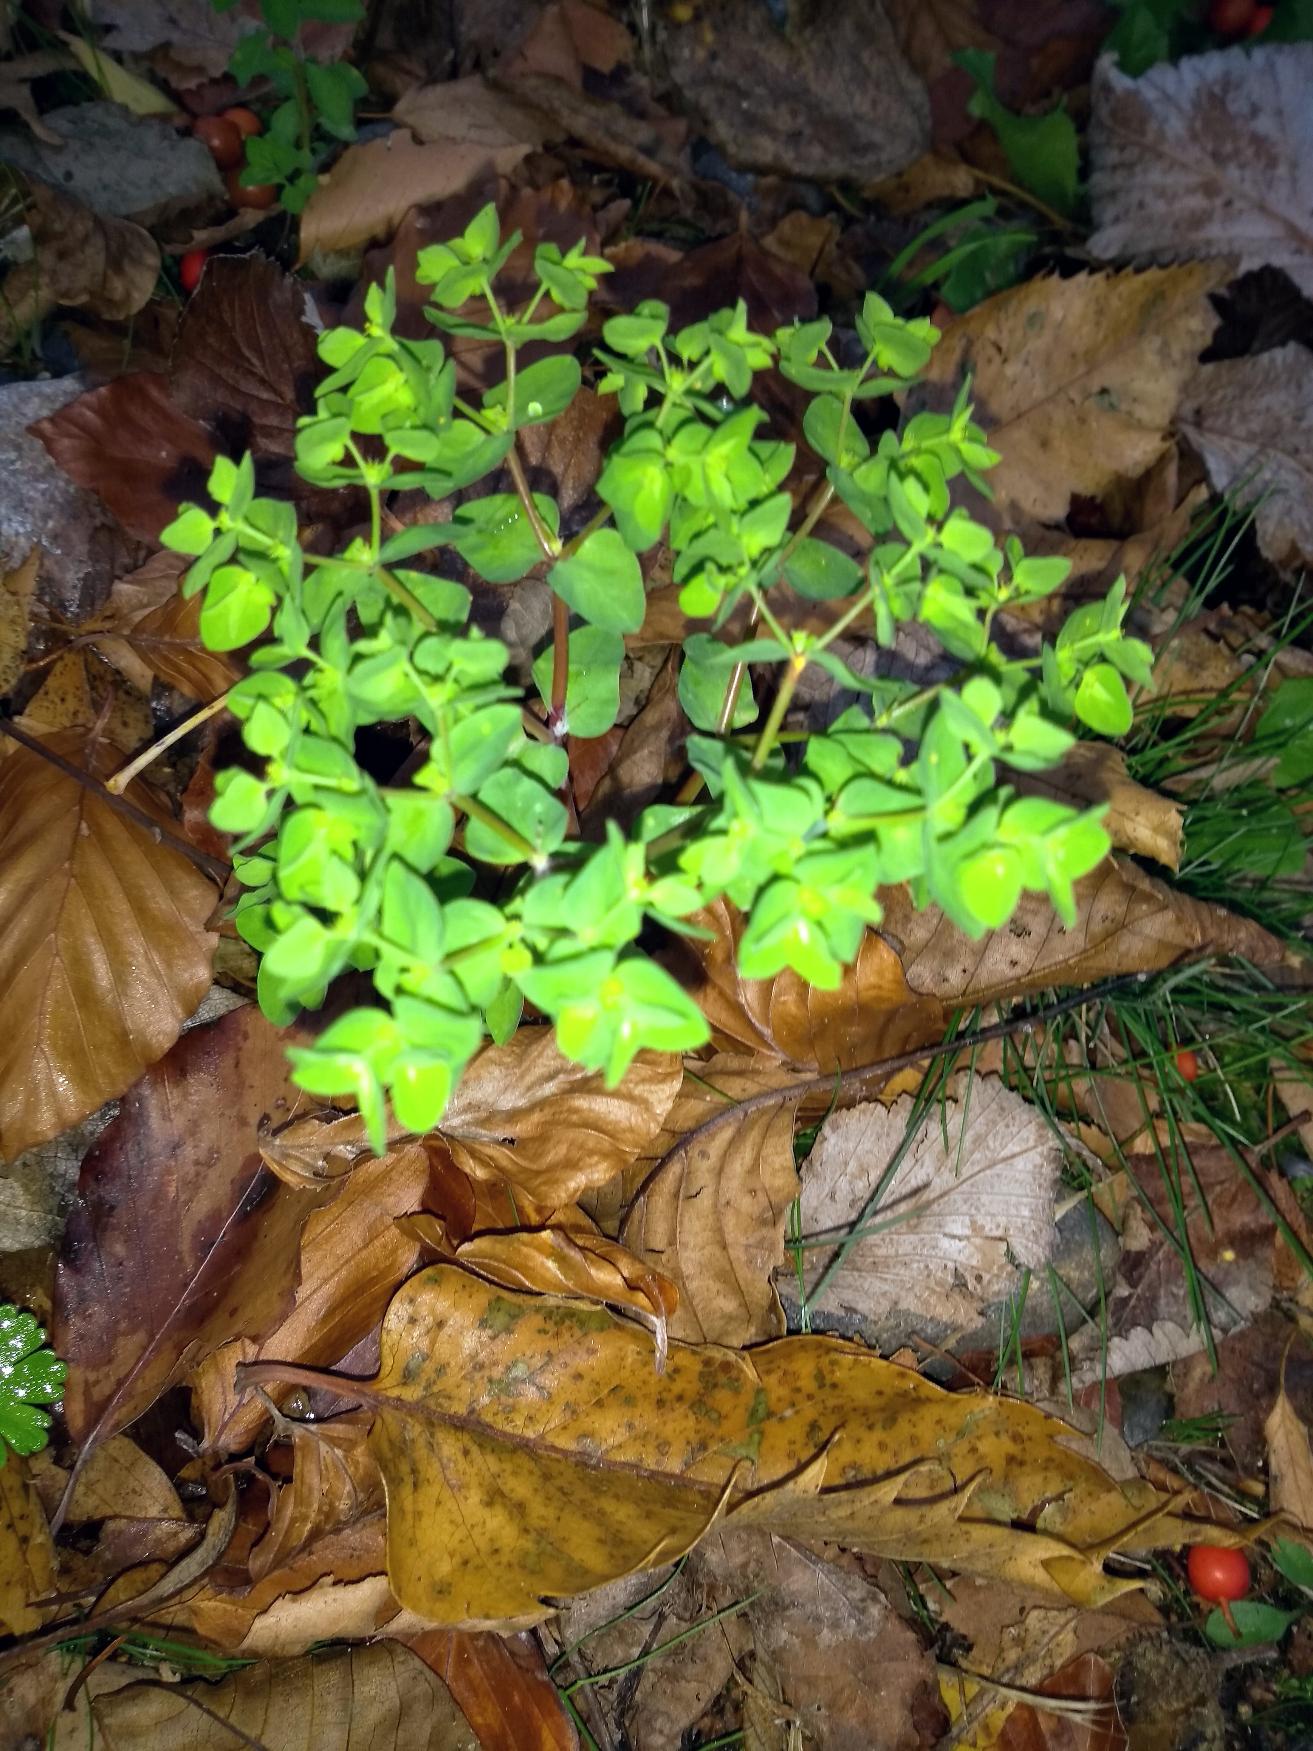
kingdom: Plantae
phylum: Tracheophyta
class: Magnoliopsida
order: Malpighiales
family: Euphorbiaceae
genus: Euphorbia
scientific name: Euphorbia peplus
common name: Gaffel-vortemælk
